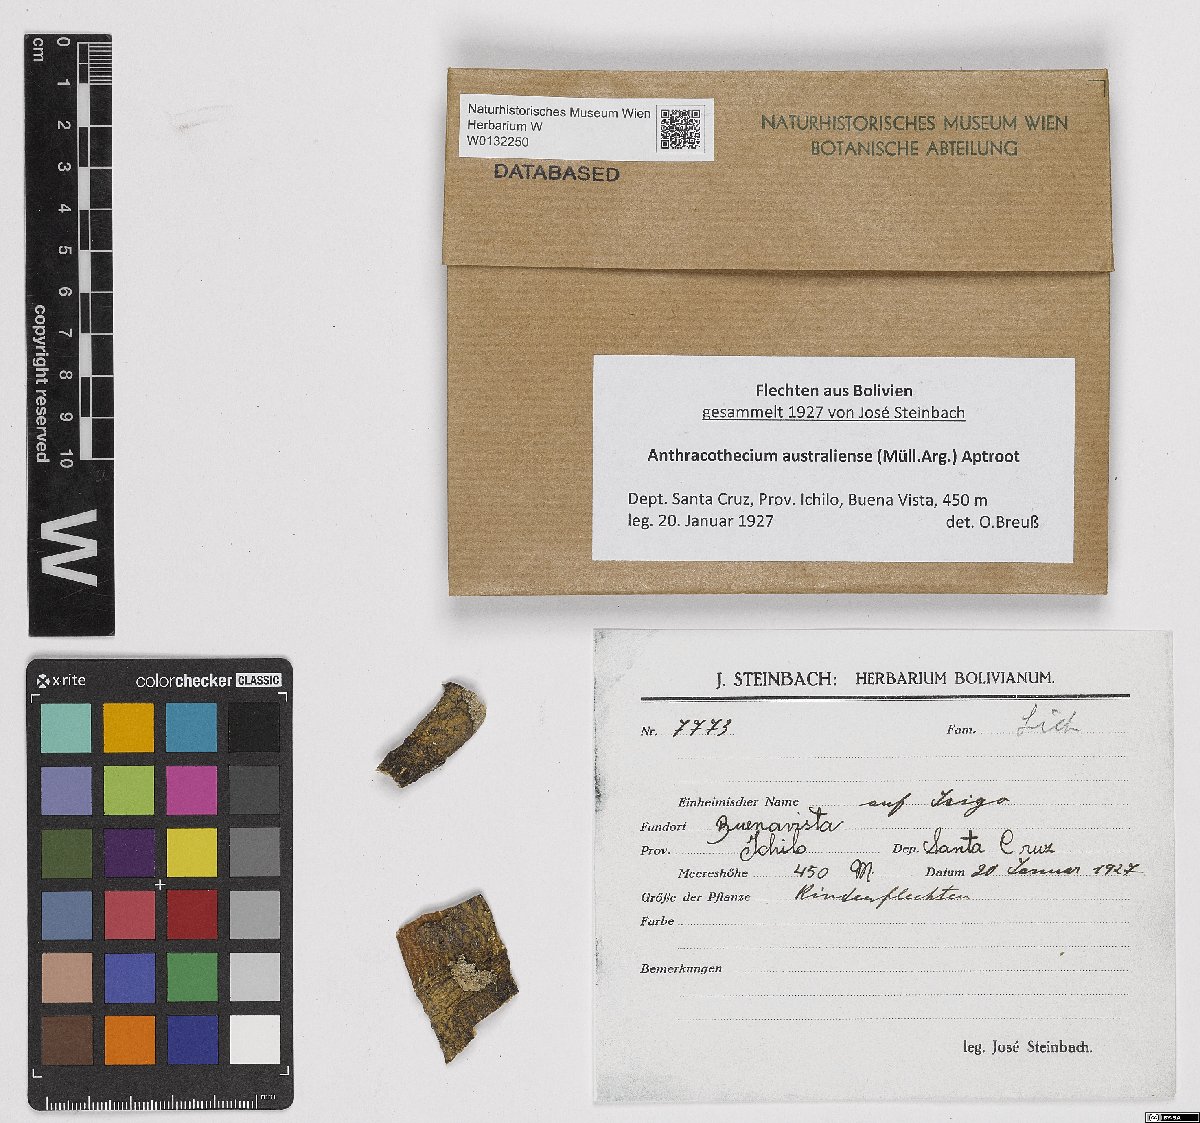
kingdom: Fungi
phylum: Ascomycota
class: Eurotiomycetes
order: Pyrenulales
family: Pyrenulaceae
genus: Anthracothecium
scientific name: Anthracothecium australiense
